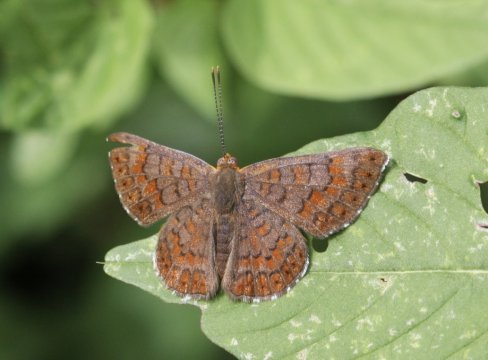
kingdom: Animalia
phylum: Arthropoda
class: Insecta
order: Lepidoptera
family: Lycaenidae
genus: Emesis
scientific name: Emesis poeas
